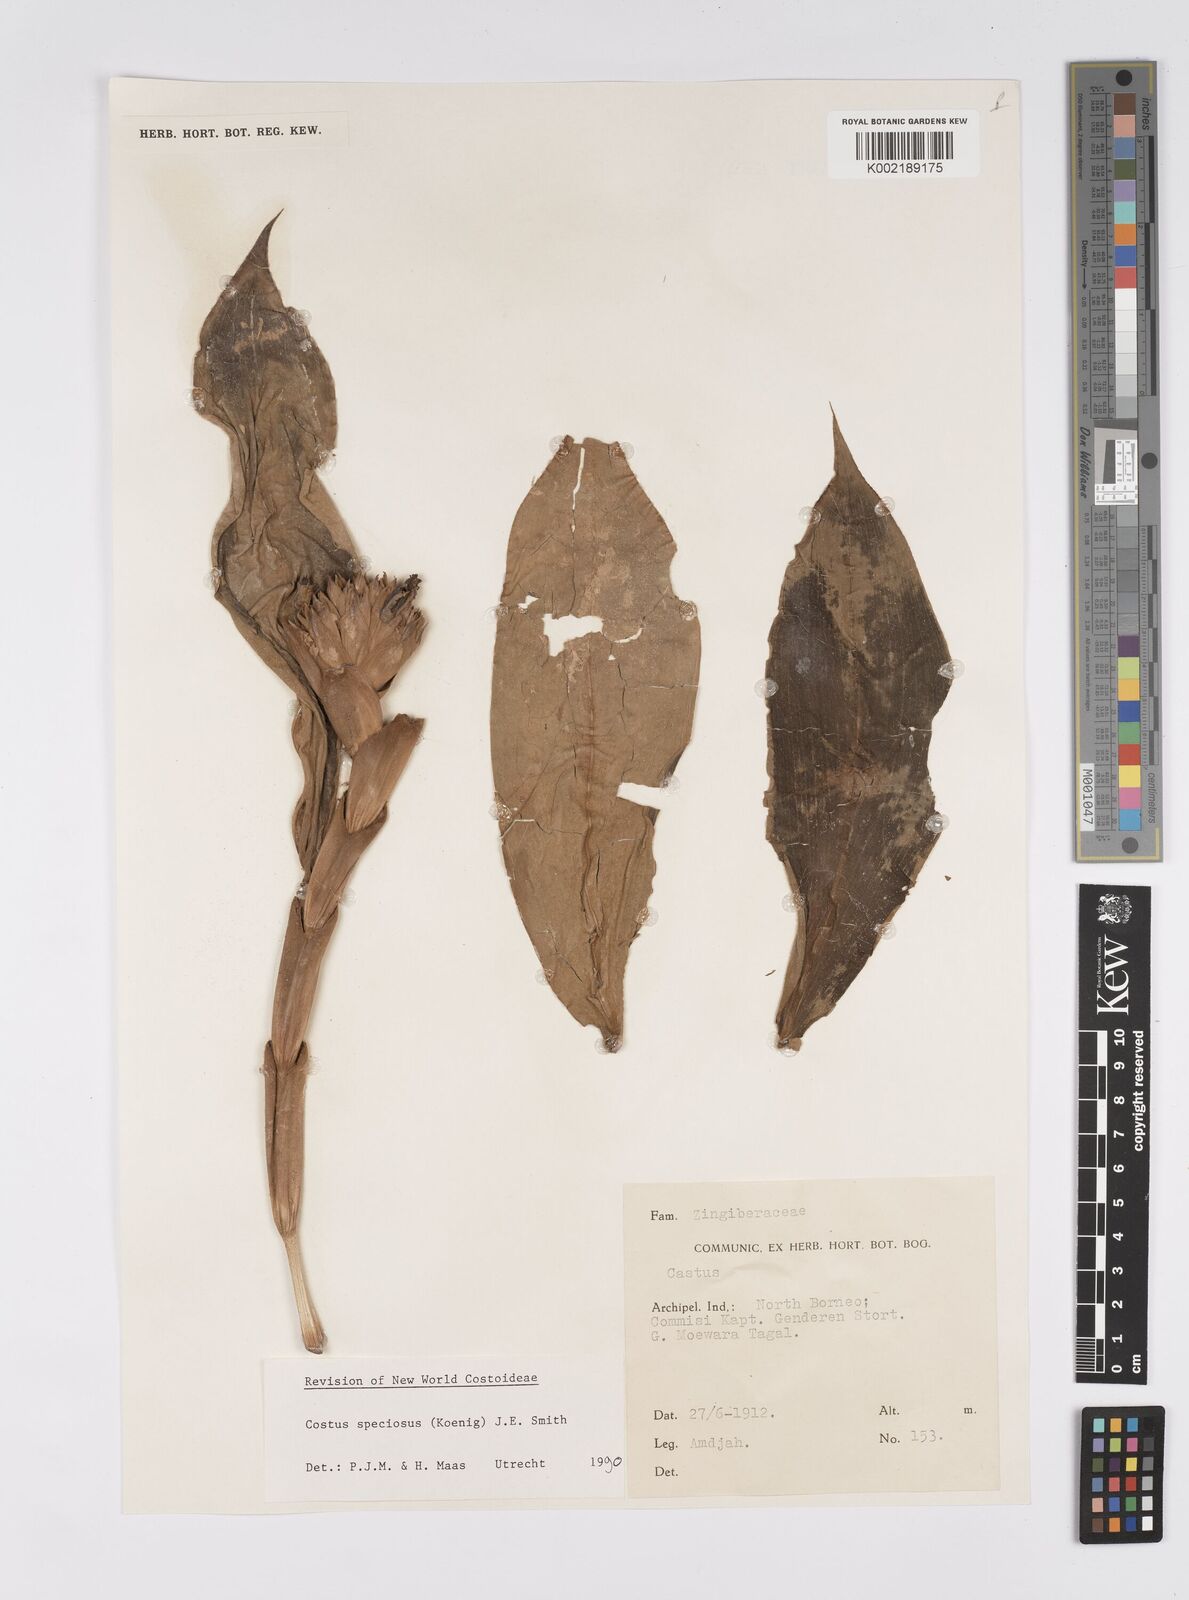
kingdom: Plantae
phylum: Tracheophyta
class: Liliopsida
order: Zingiberales
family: Costaceae
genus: Hellenia
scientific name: Hellenia speciosa
